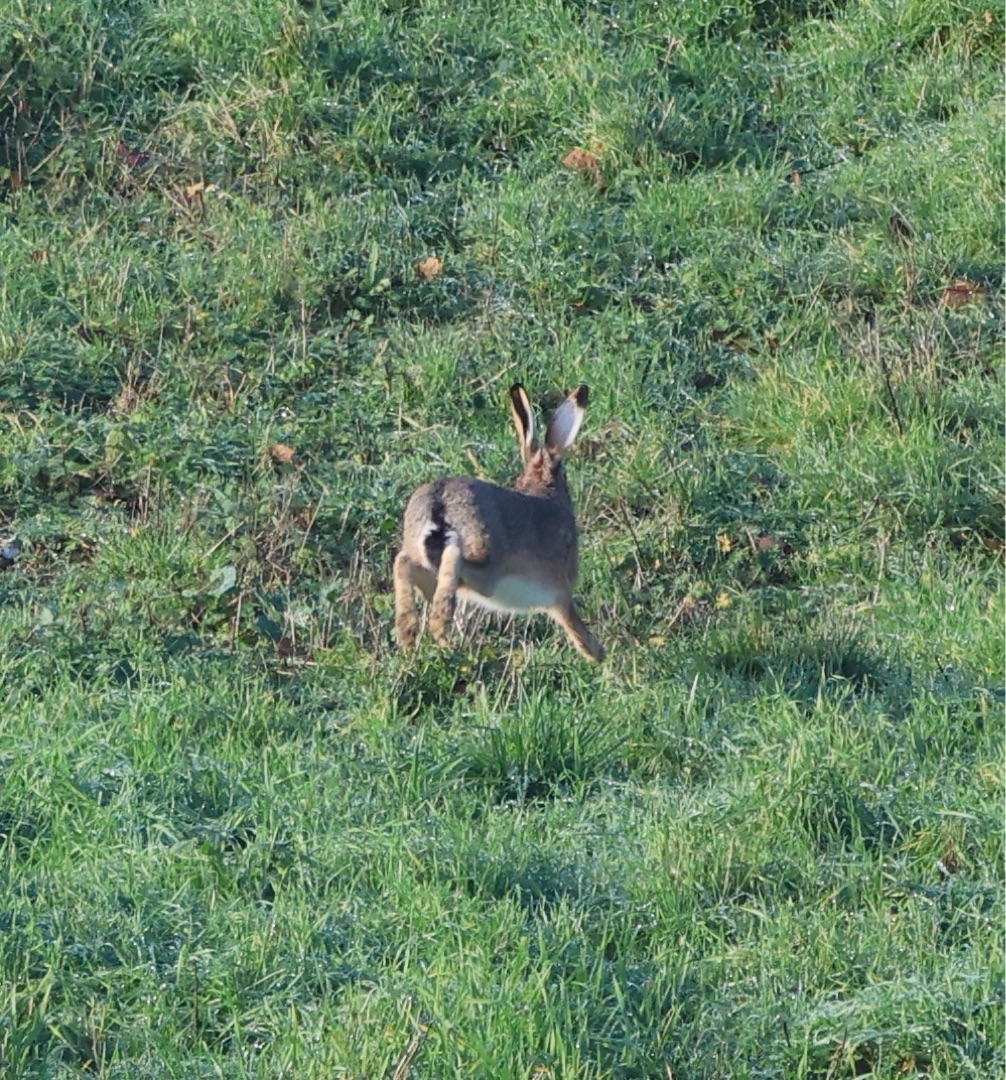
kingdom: Animalia
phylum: Chordata
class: Mammalia
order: Lagomorpha
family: Leporidae
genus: Lepus
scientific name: Lepus europaeus
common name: Hare
